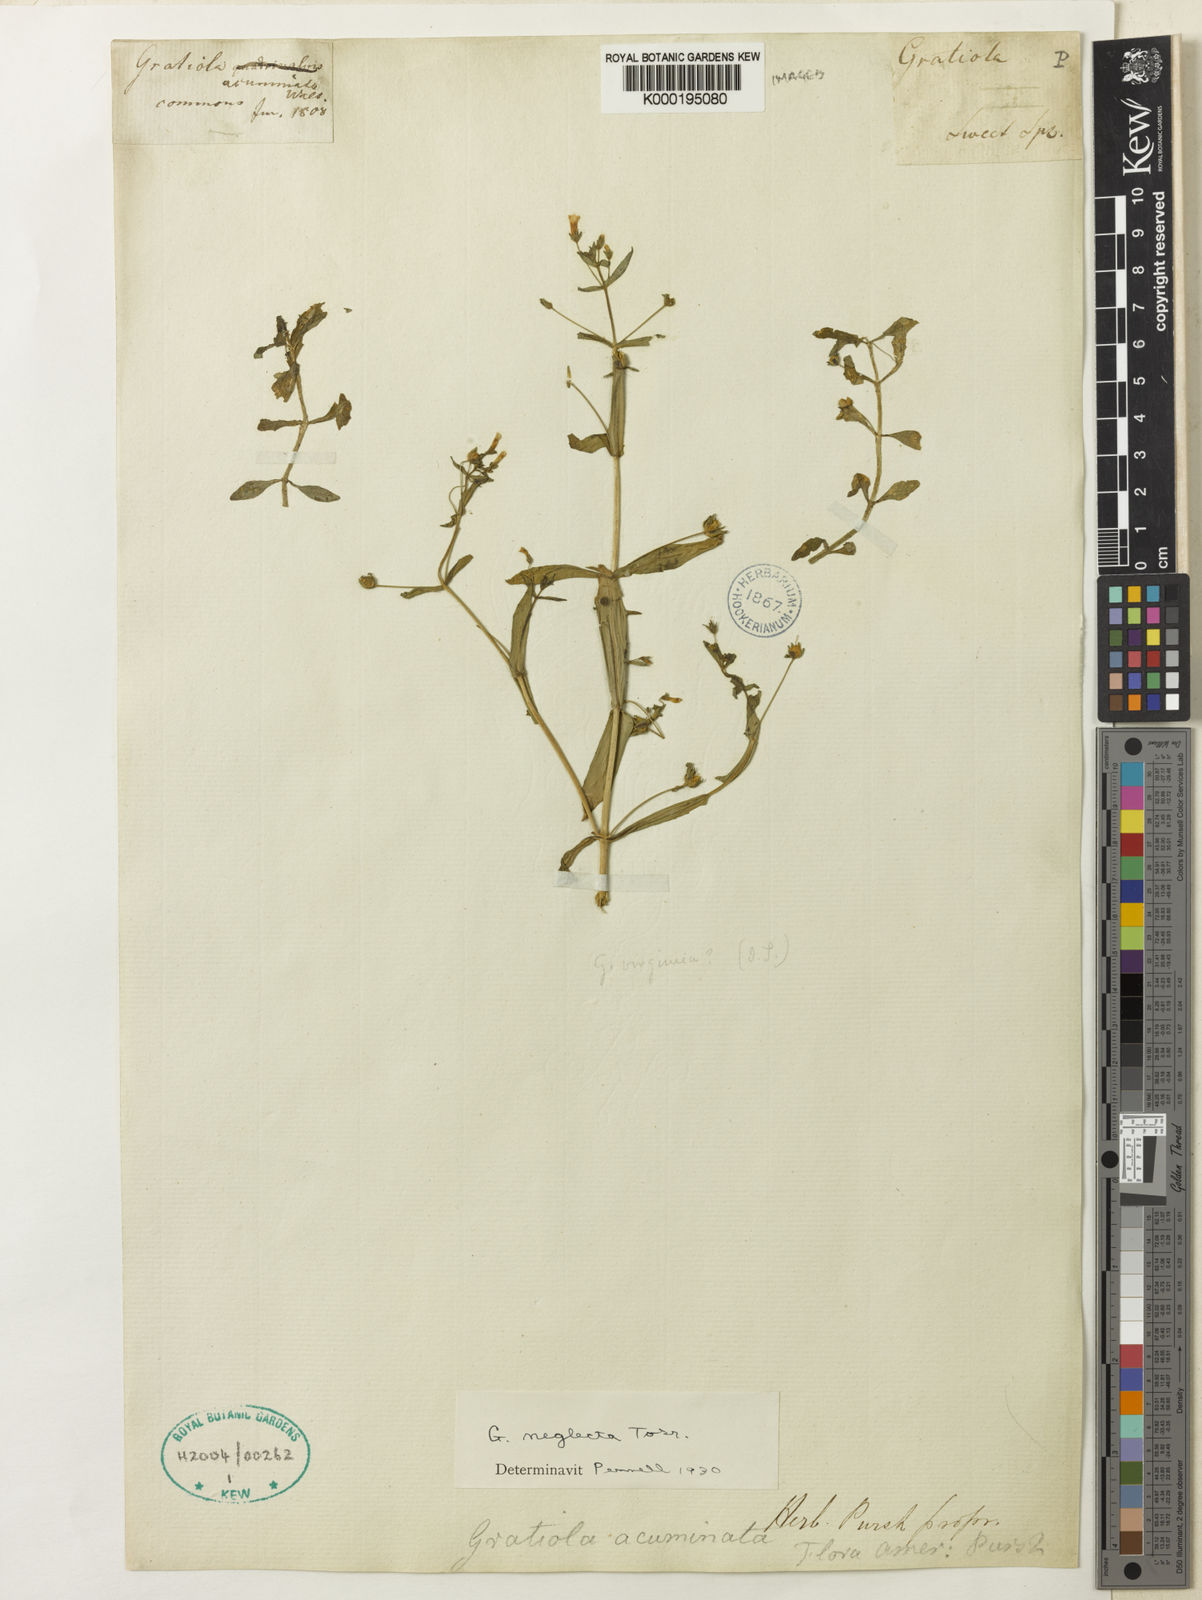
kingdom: Plantae
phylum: Tracheophyta
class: Magnoliopsida
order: Lamiales
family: Plantaginaceae
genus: Gratiola
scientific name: Gratiola neglecta
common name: American hedge-hyssop
